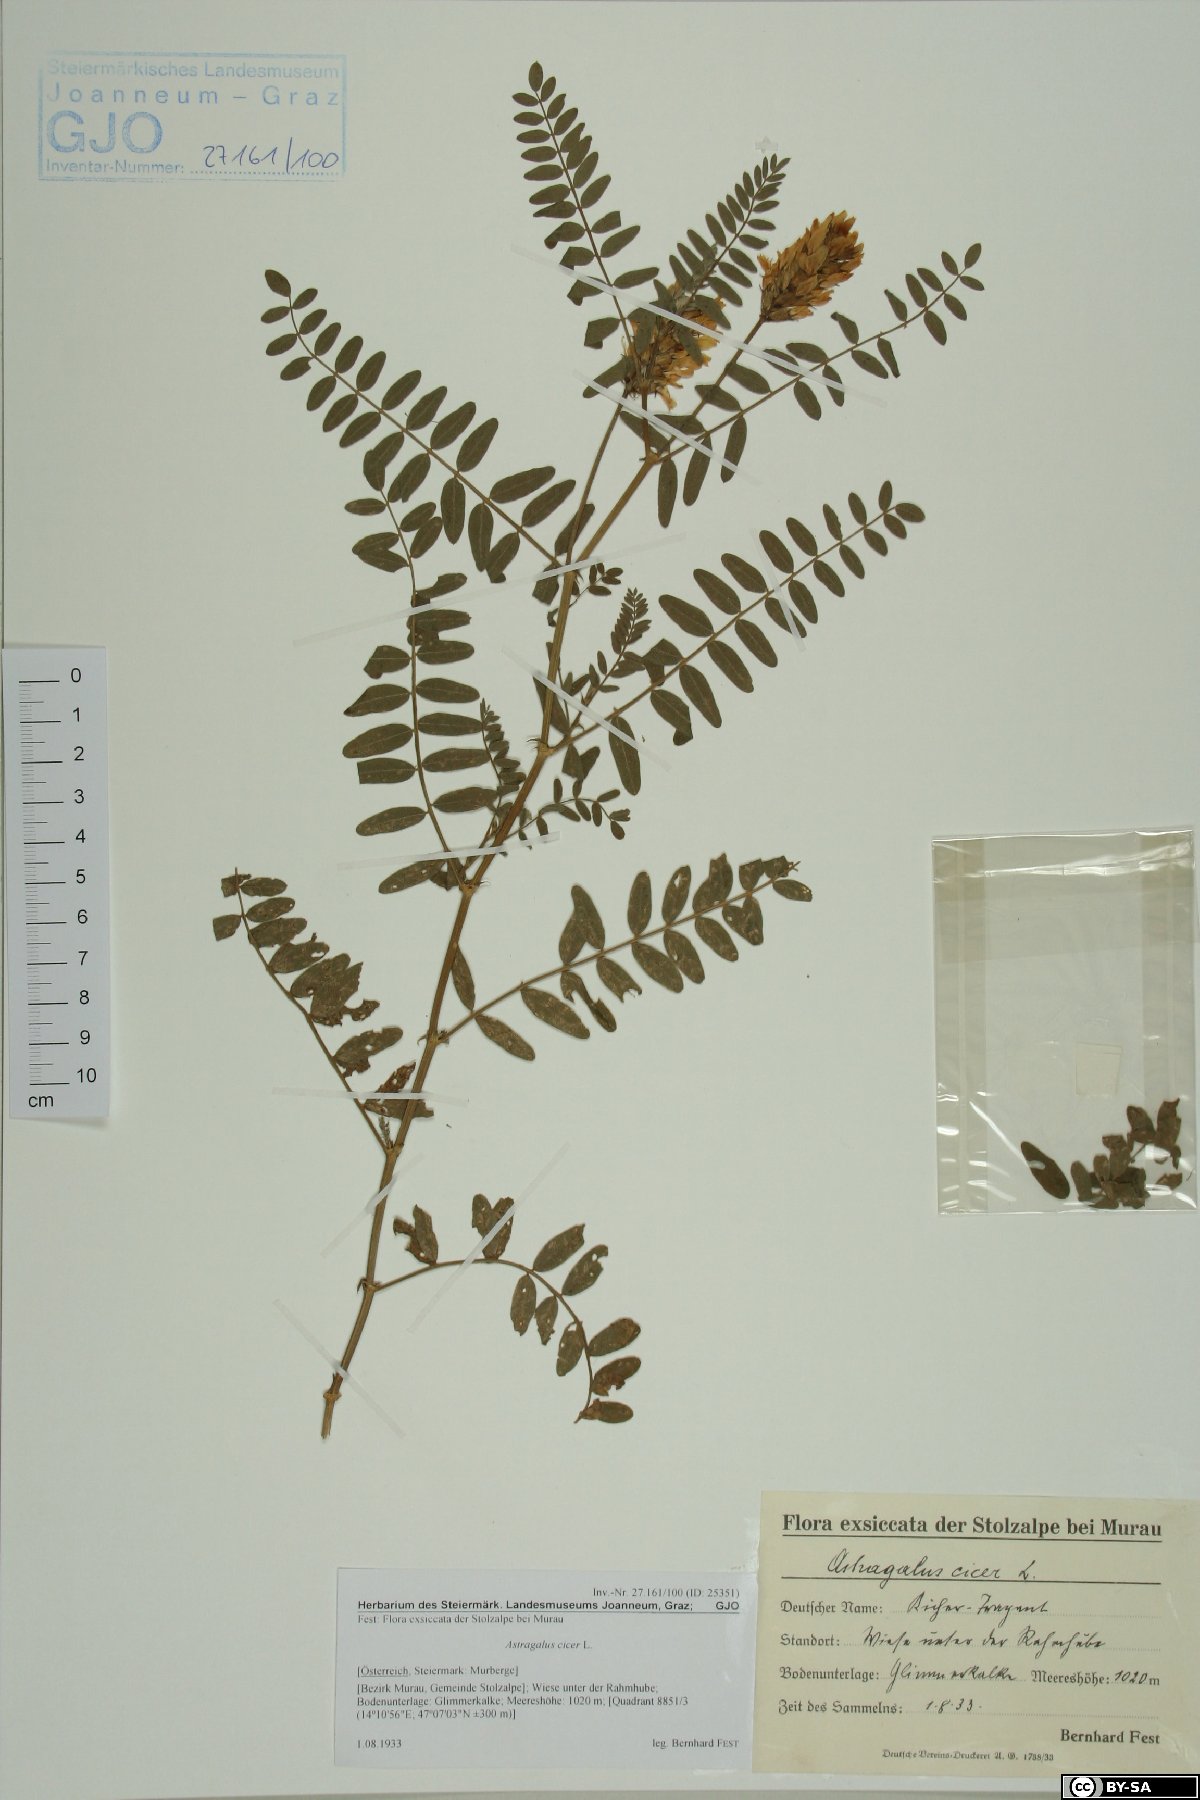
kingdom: Plantae
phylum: Tracheophyta
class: Magnoliopsida
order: Fabales
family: Fabaceae
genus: Astragalus
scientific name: Astragalus cicer
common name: Chick-pea milk-vetch
